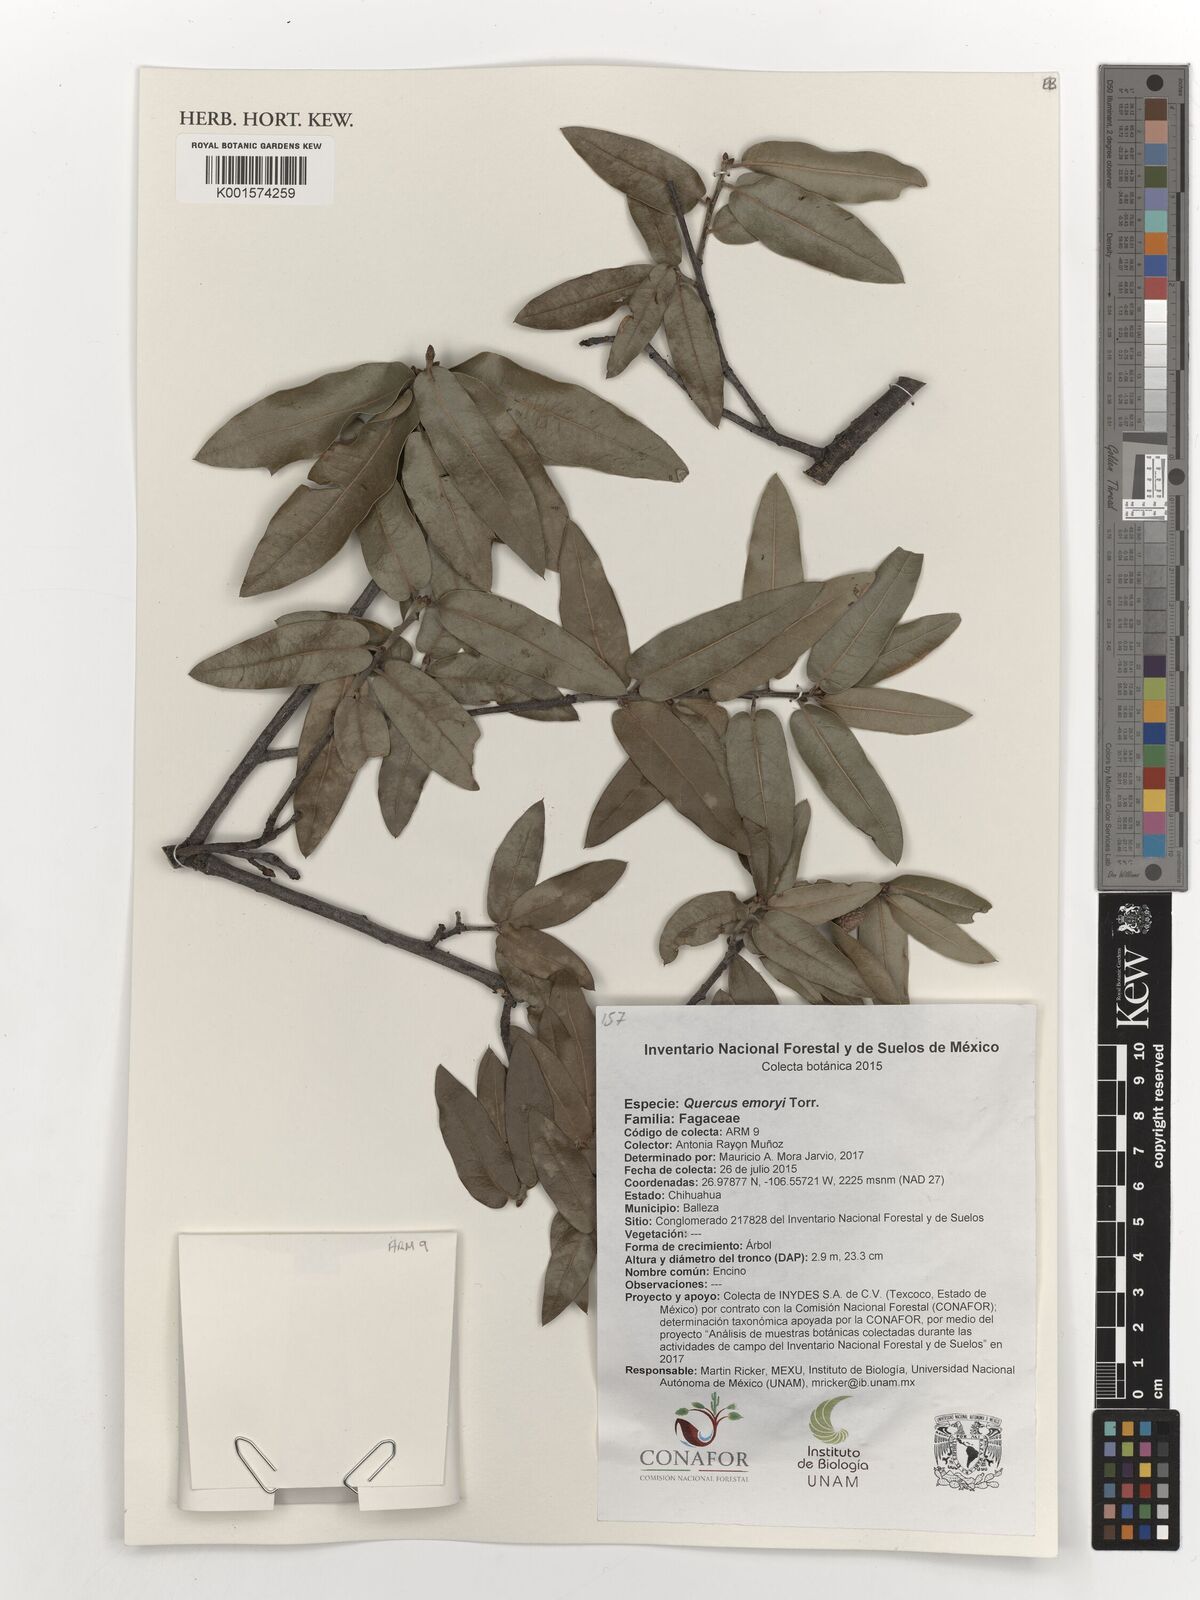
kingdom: Plantae
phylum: Tracheophyta
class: Magnoliopsida
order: Fagales
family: Fagaceae
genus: Quercus
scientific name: Quercus emoryi
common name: Emory oak
